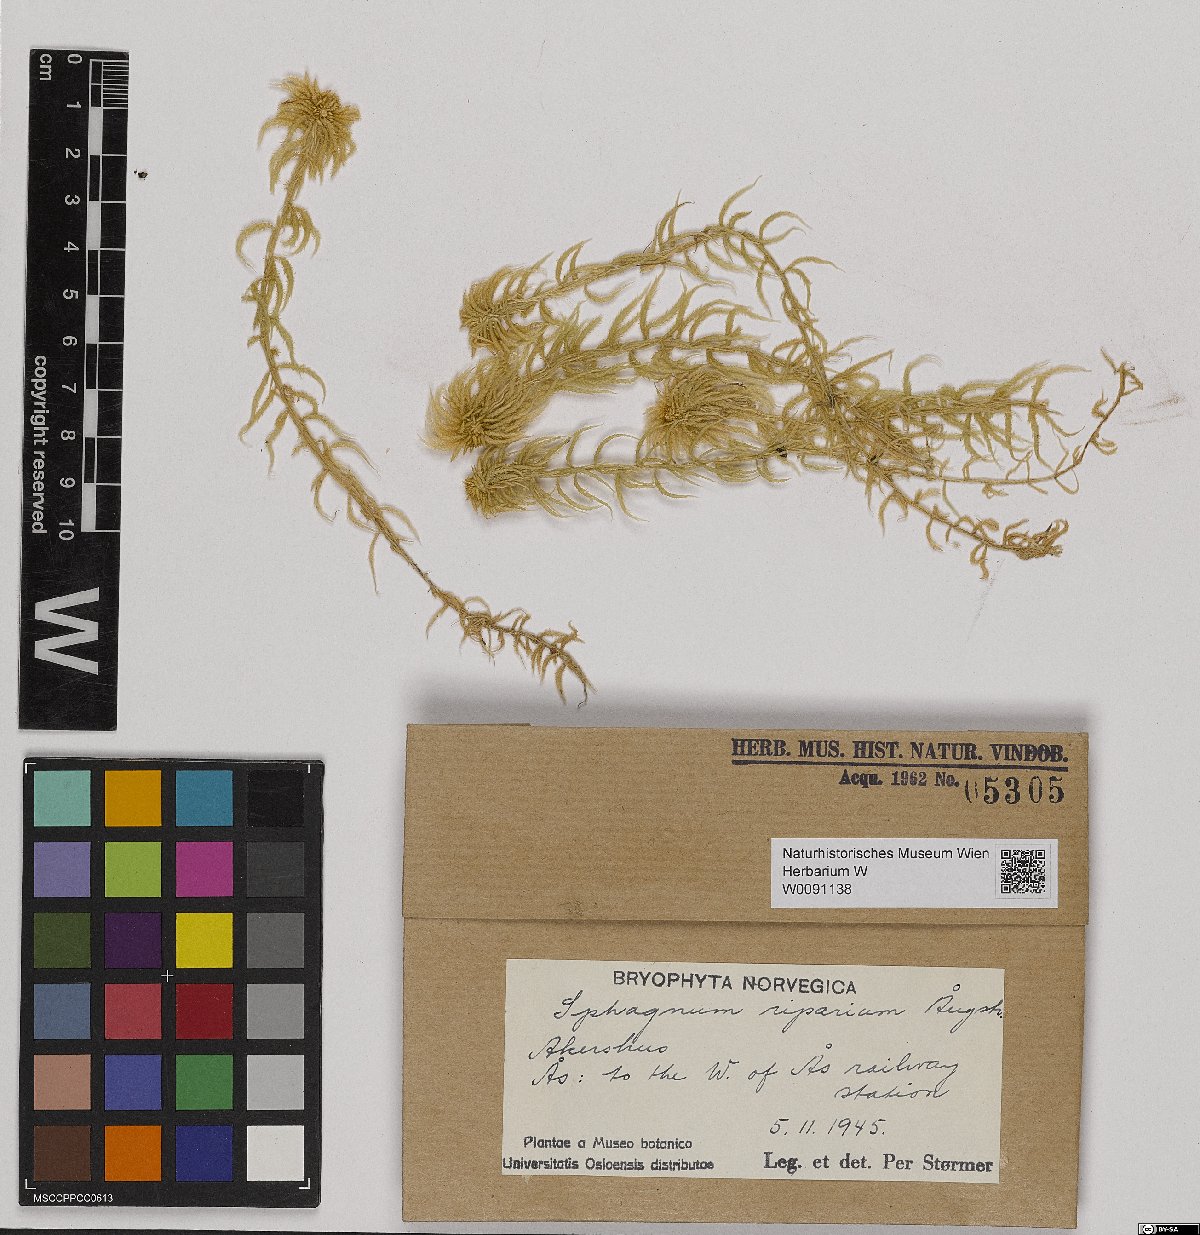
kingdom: Plantae
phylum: Bryophyta
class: Sphagnopsida
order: Sphagnales
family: Sphagnaceae
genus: Sphagnum
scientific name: Sphagnum riparium
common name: Streamside peat moss
